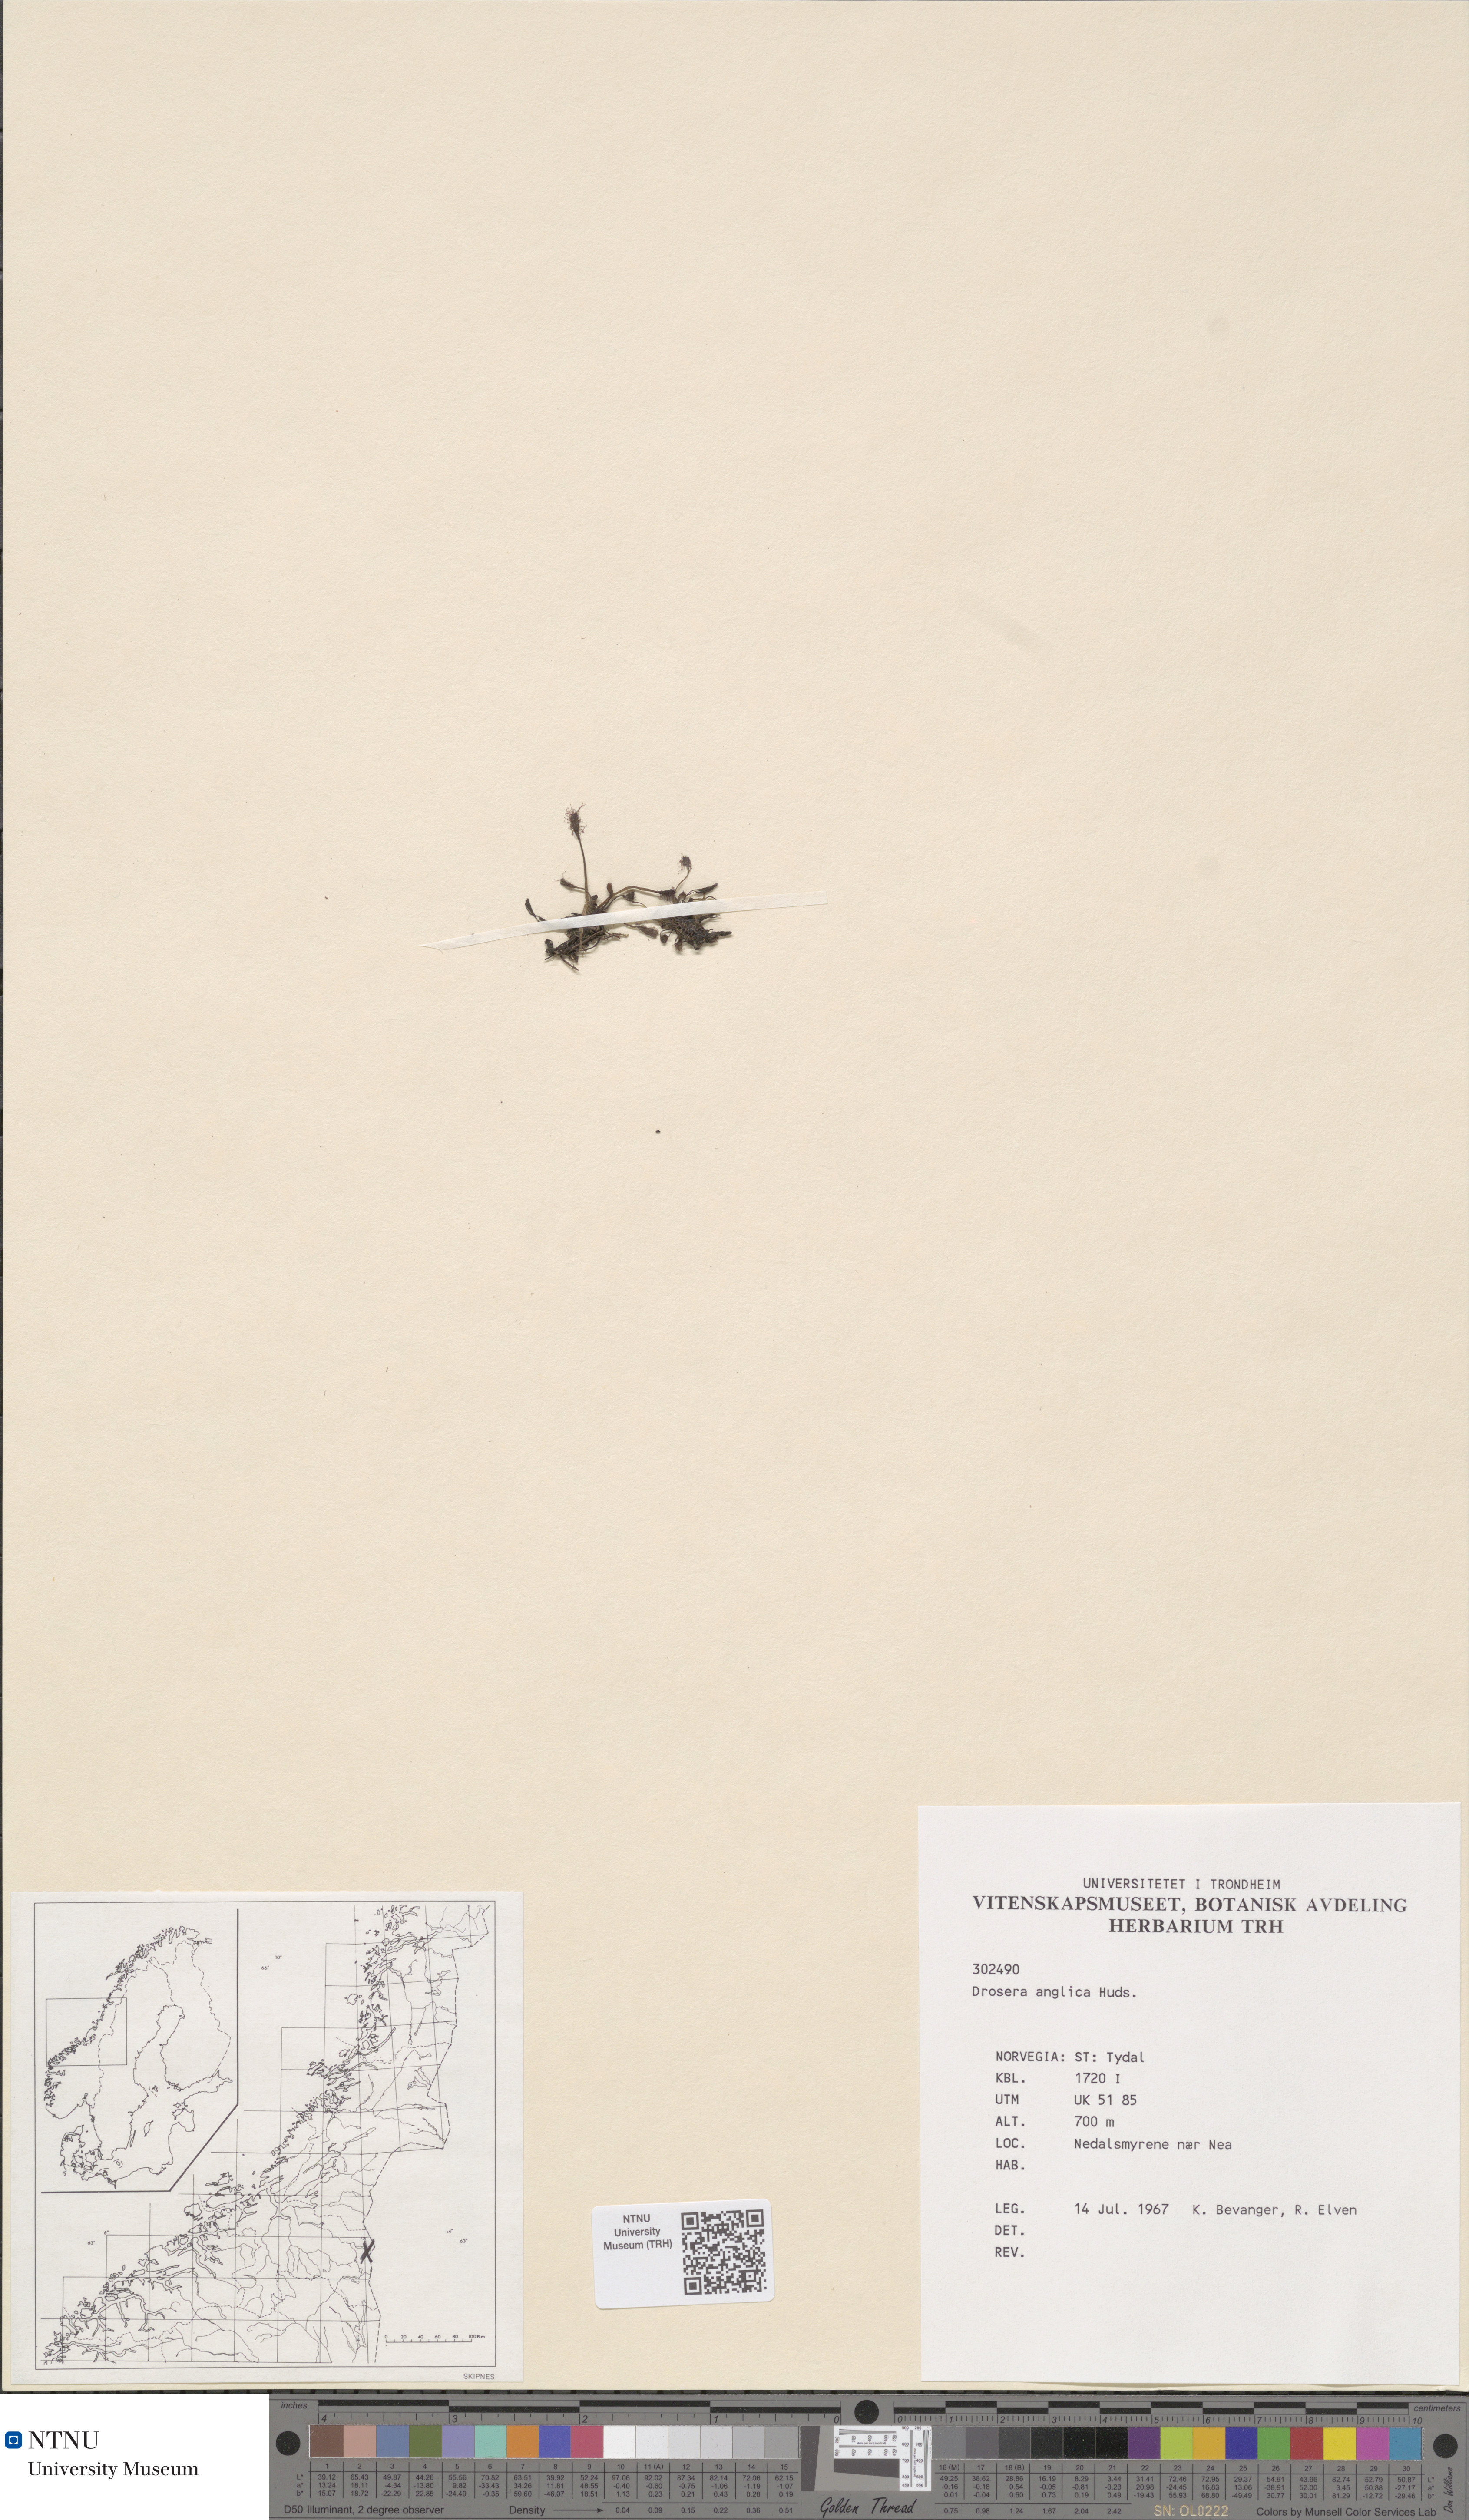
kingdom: Plantae
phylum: Tracheophyta
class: Magnoliopsida
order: Caryophyllales
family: Droseraceae
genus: Drosera
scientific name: Drosera anglica
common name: Great sundew
